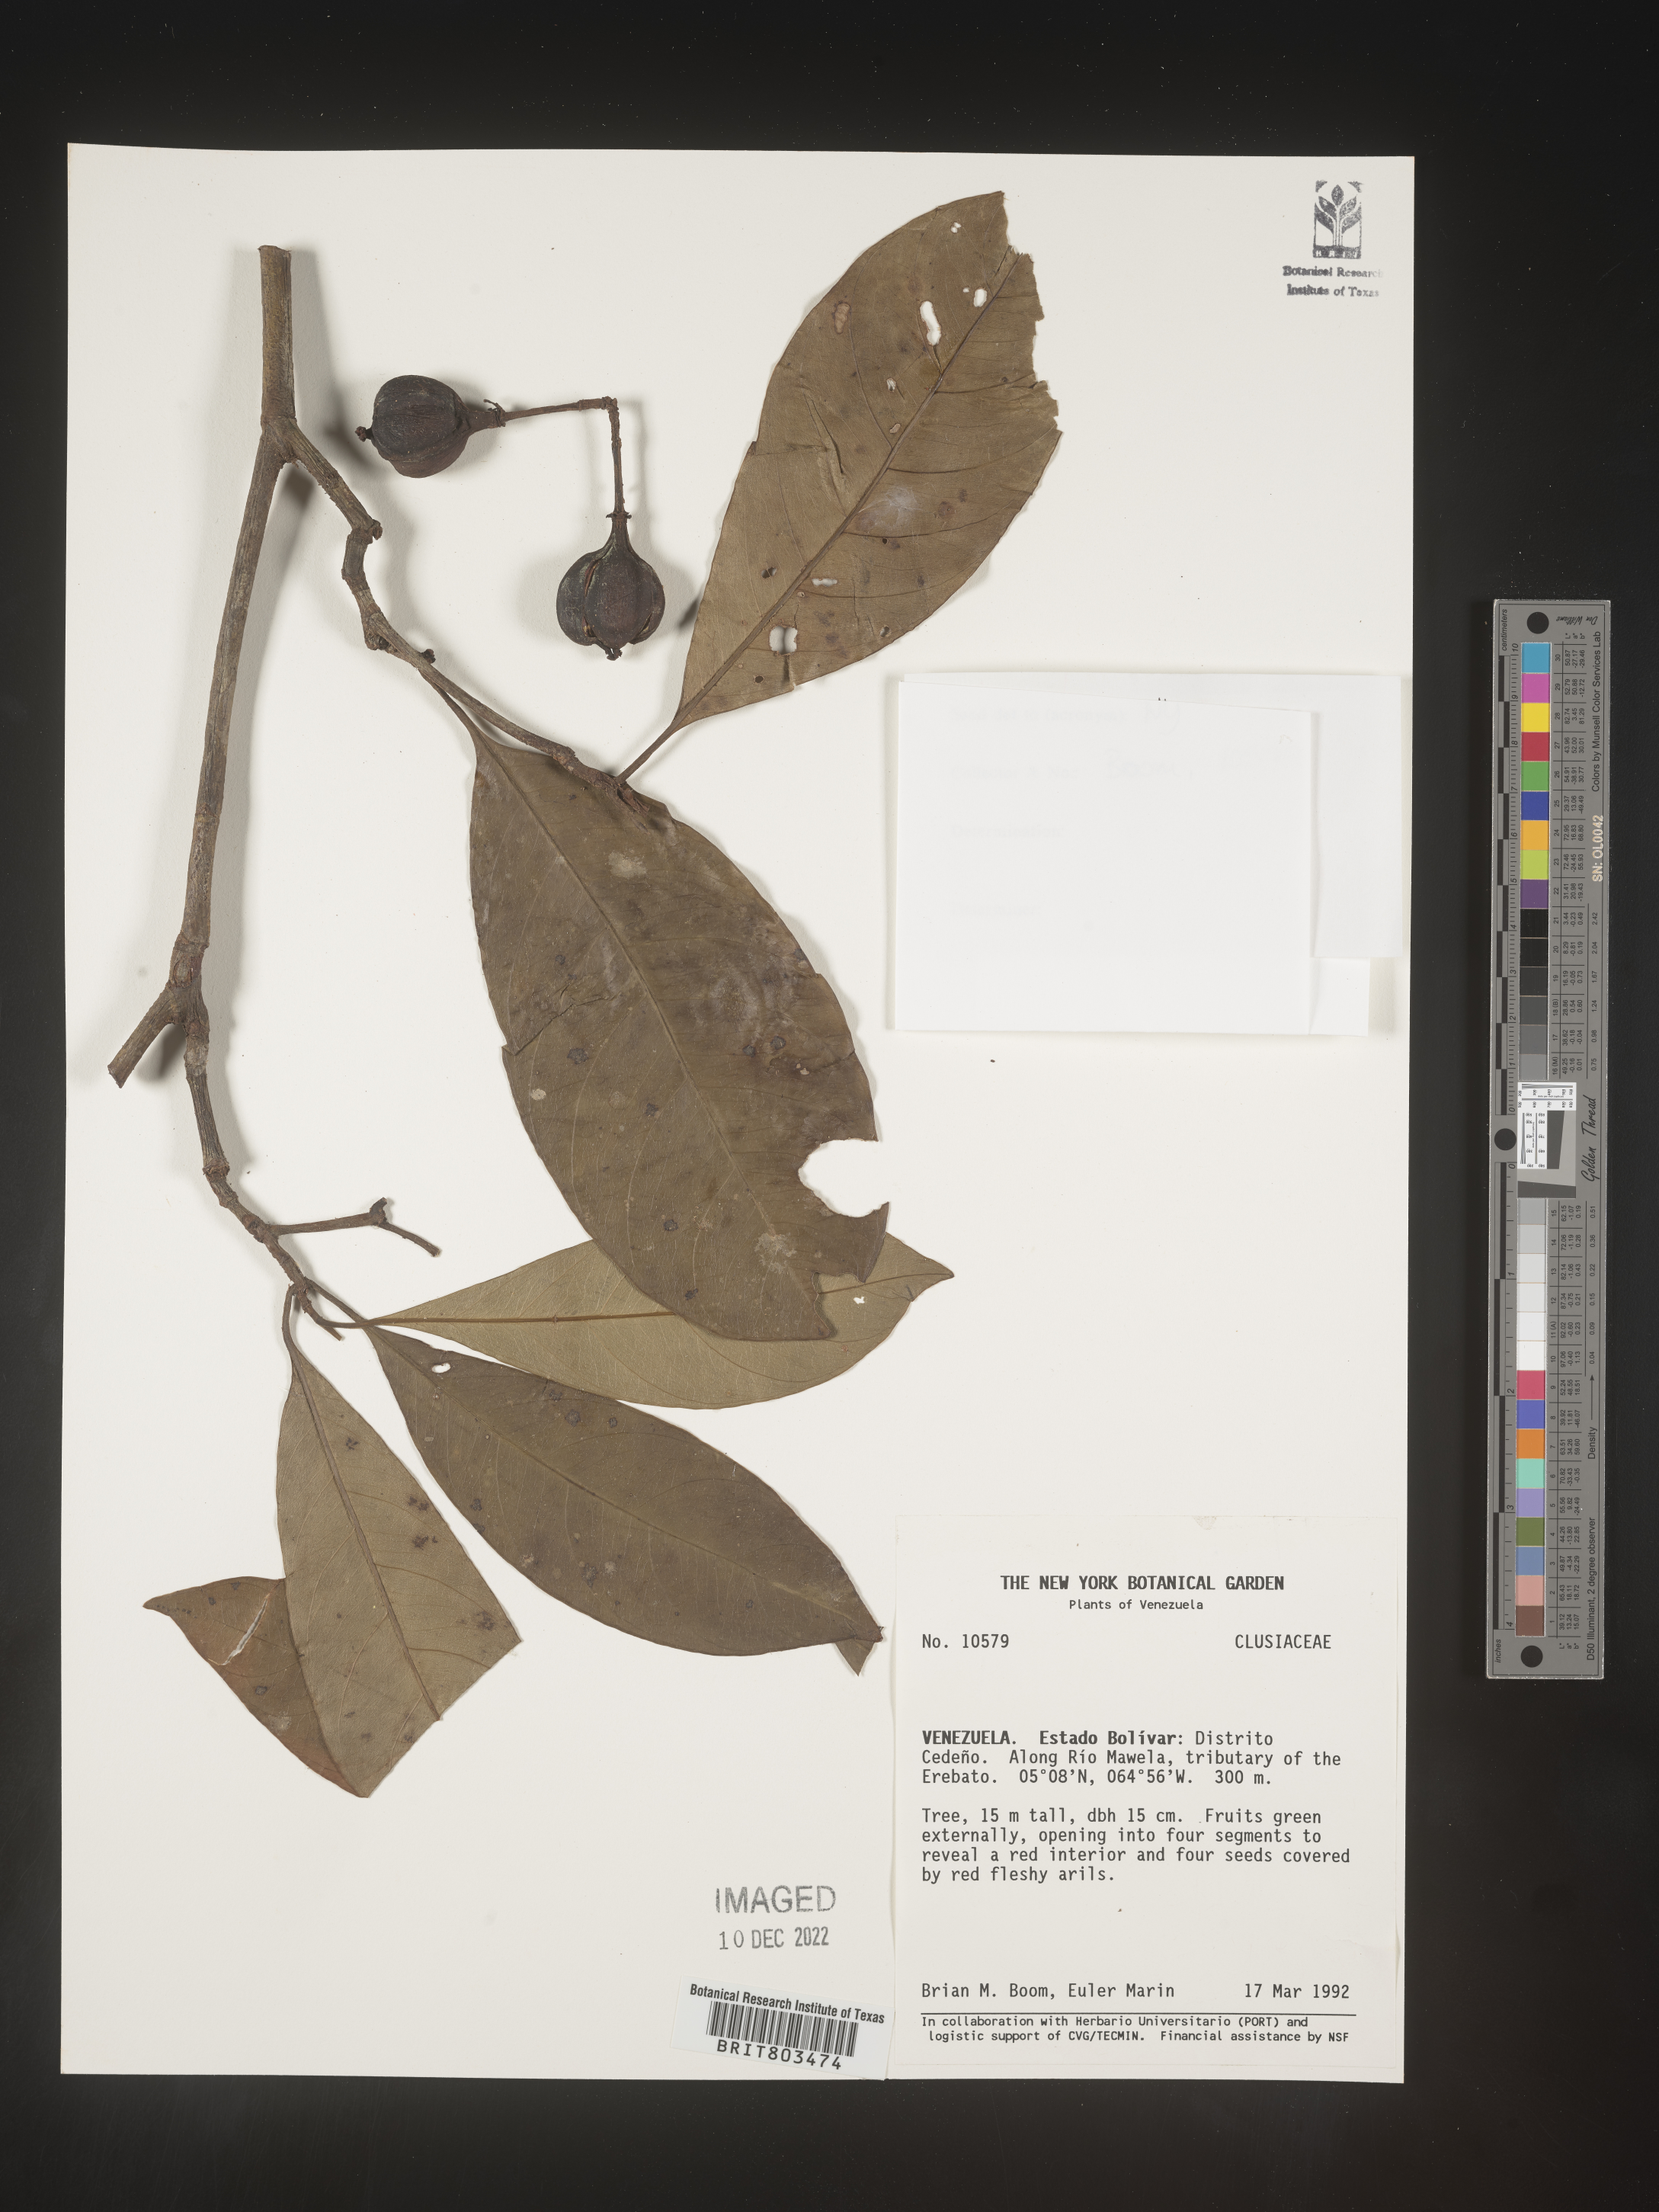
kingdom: Plantae
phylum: Tracheophyta
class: Magnoliopsida
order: Malpighiales
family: Clusiaceae
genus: Tovomita
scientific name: Tovomita
